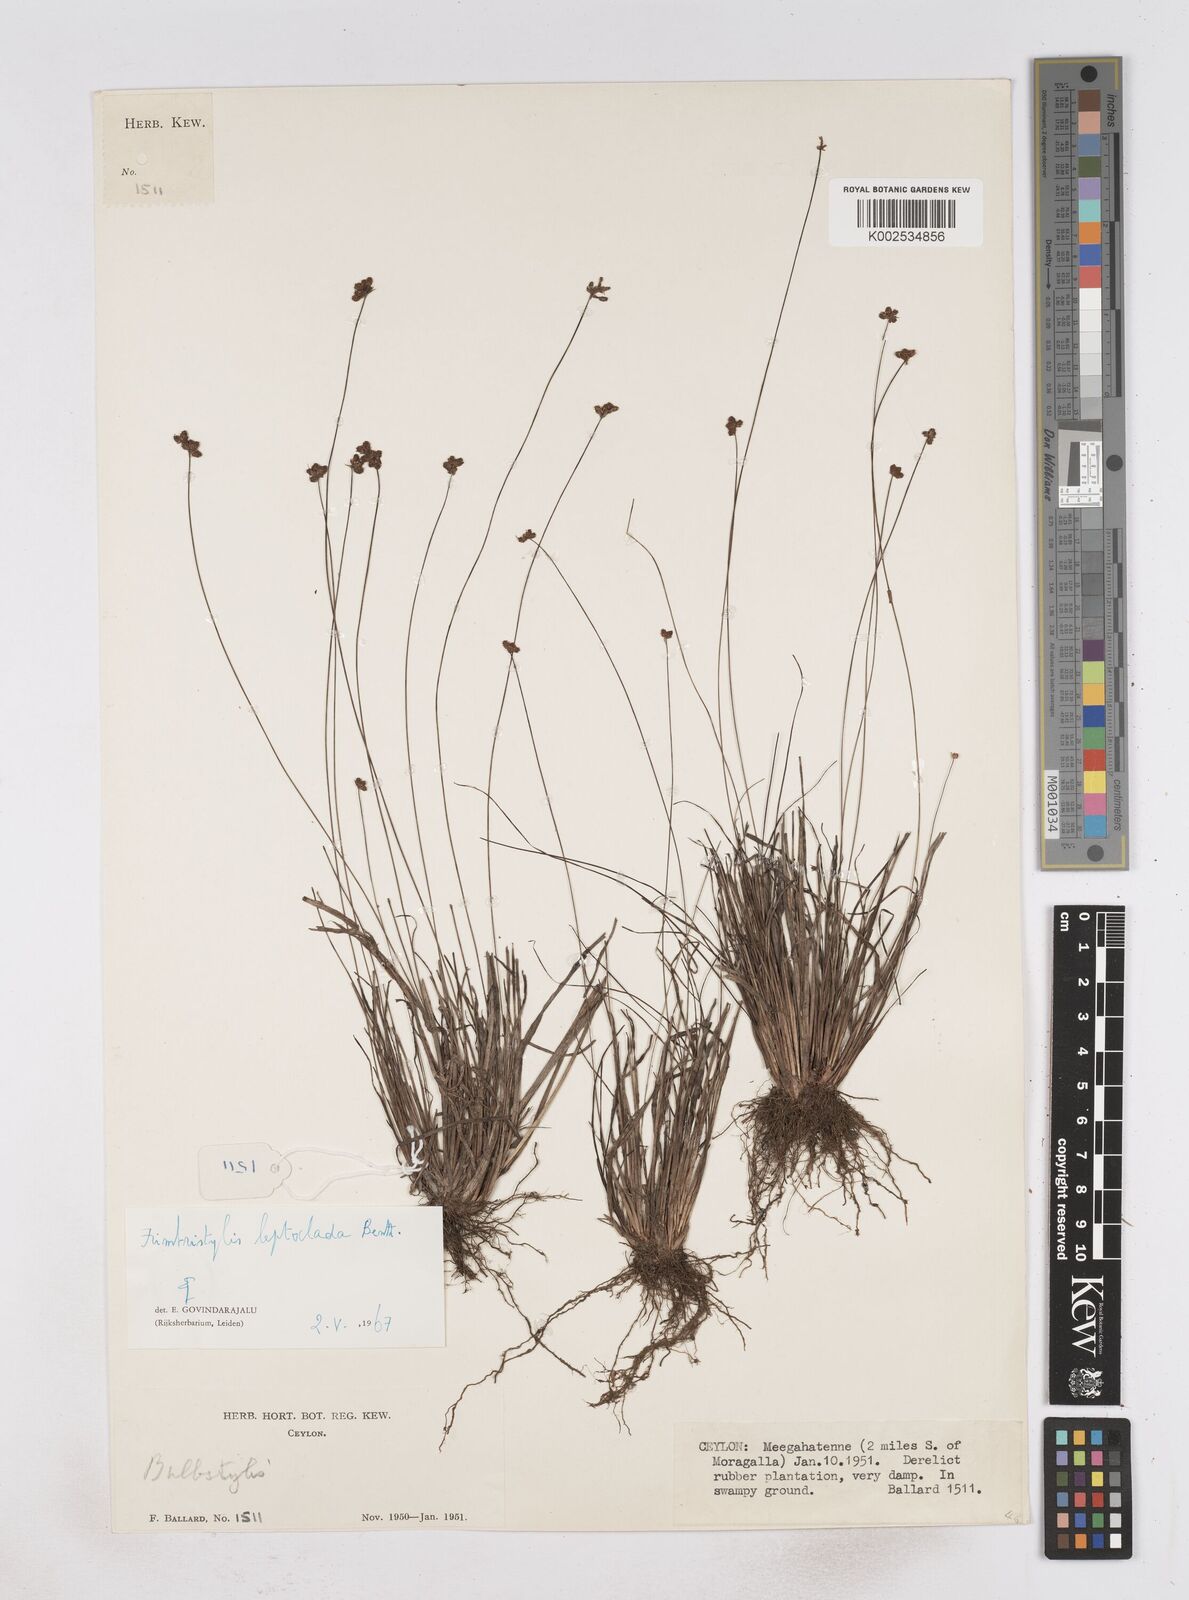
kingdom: Plantae
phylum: Tracheophyta
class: Liliopsida
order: Poales
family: Cyperaceae
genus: Fimbristylis
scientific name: Fimbristylis leptoclada
